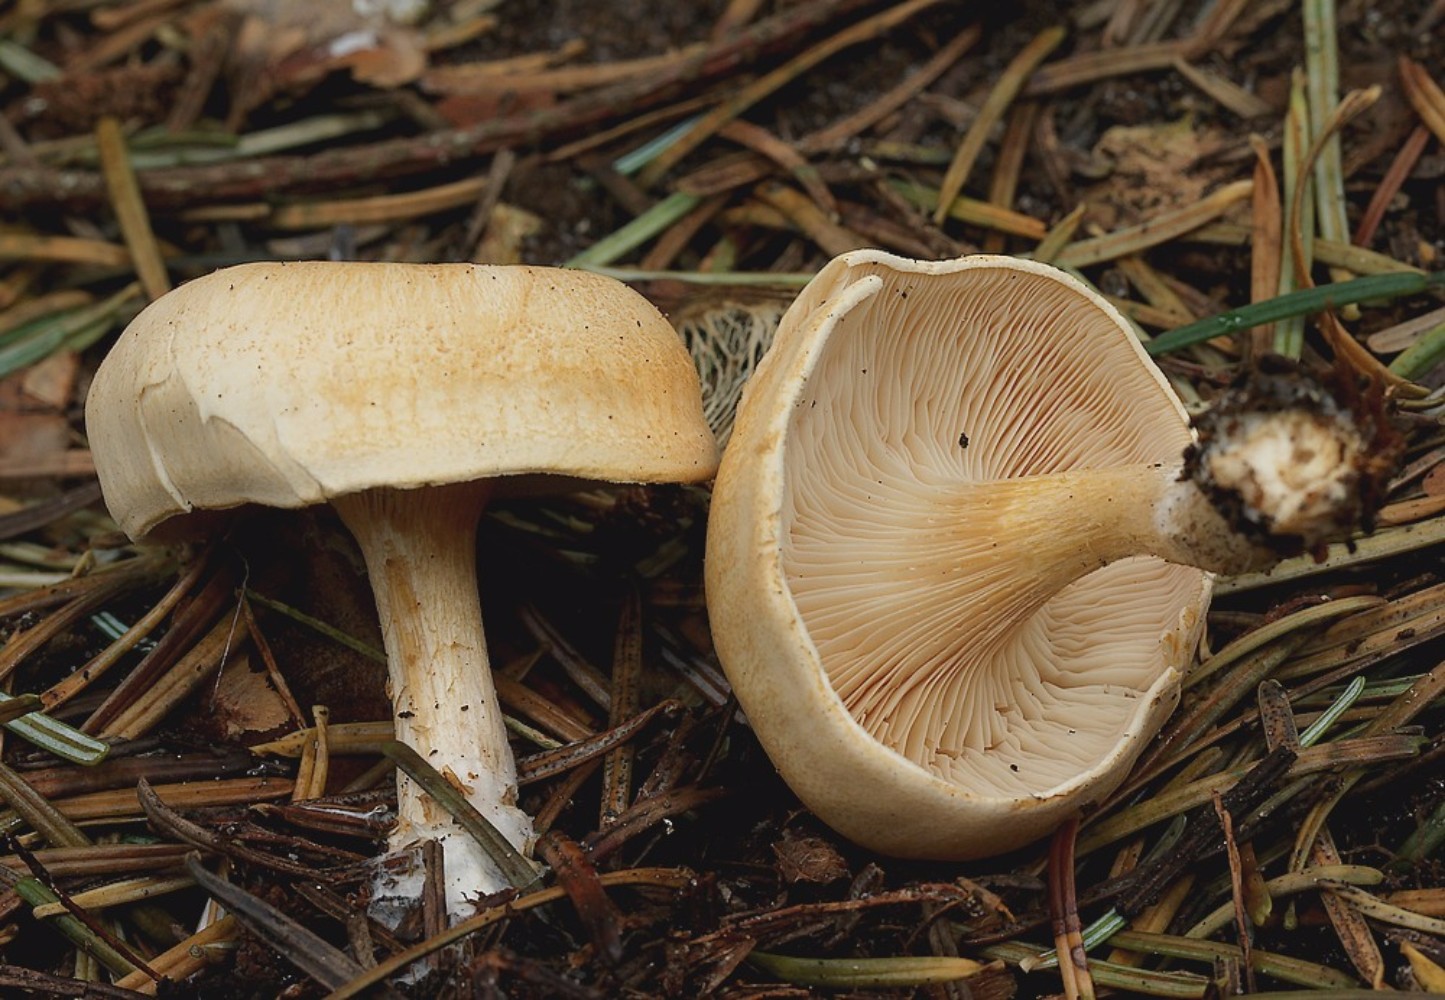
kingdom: Fungi
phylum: Basidiomycota
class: Agaricomycetes
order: Agaricales
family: Tricholomataceae
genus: Paralepista
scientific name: Paralepista gilva
